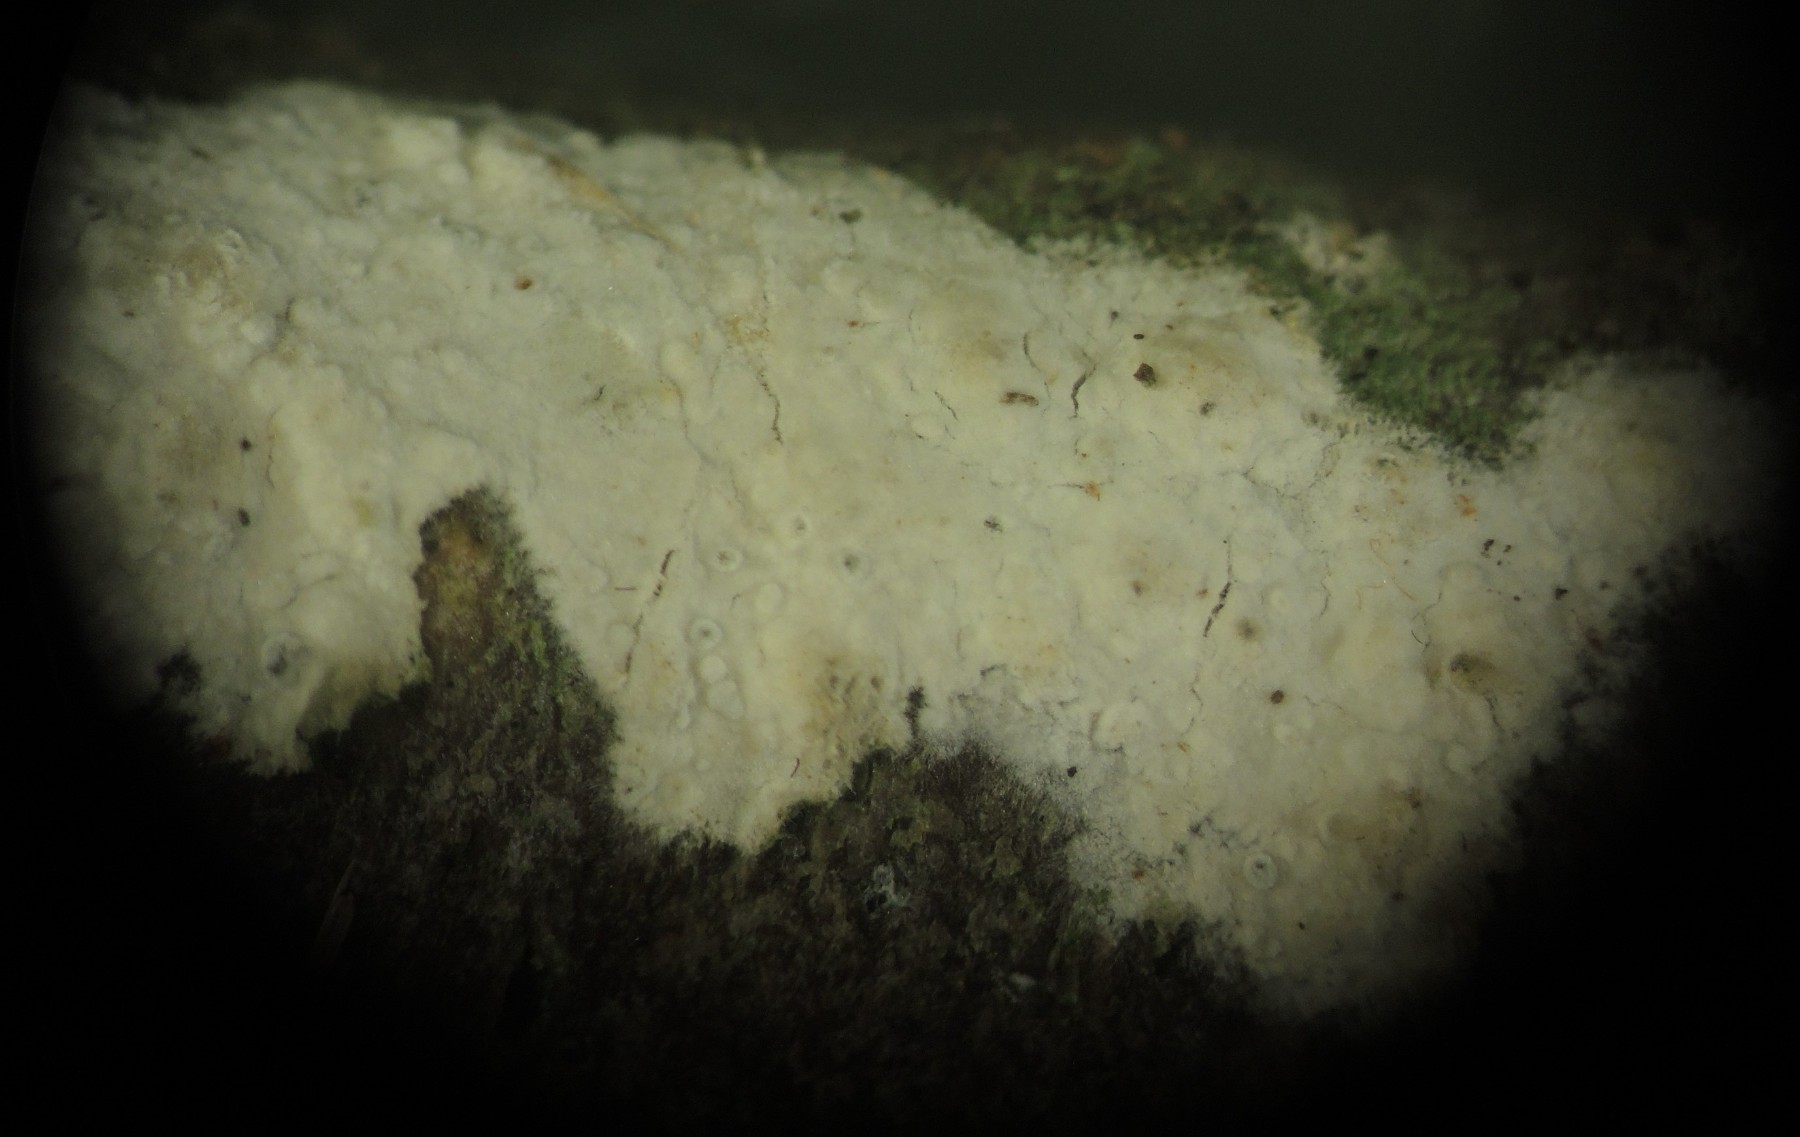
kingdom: Fungi
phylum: Basidiomycota
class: Agaricomycetes
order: Corticiales
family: Corticiaceae
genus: Lyomyces
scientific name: Lyomyces sambuci
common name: almindelig hyldehinde
